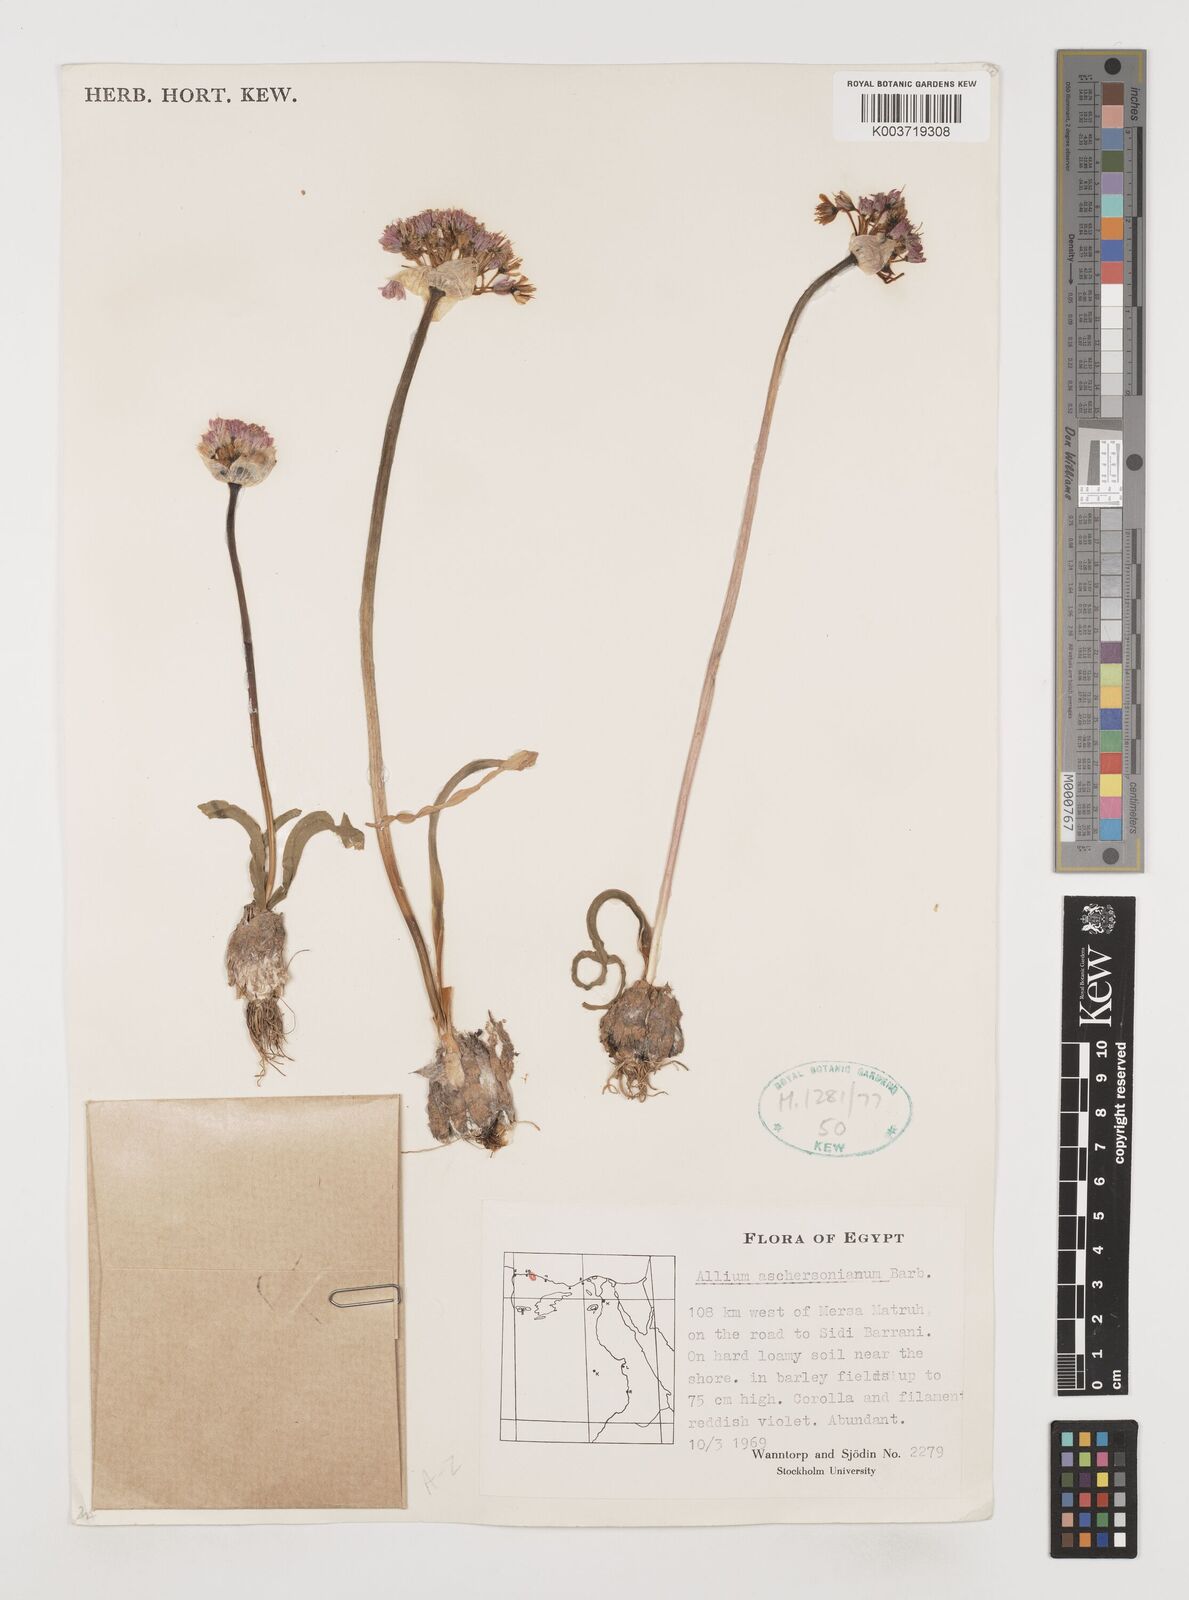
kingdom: Plantae
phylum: Tracheophyta
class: Liliopsida
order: Asparagales
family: Amaryllidaceae
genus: Allium
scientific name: Allium aschersonianum
